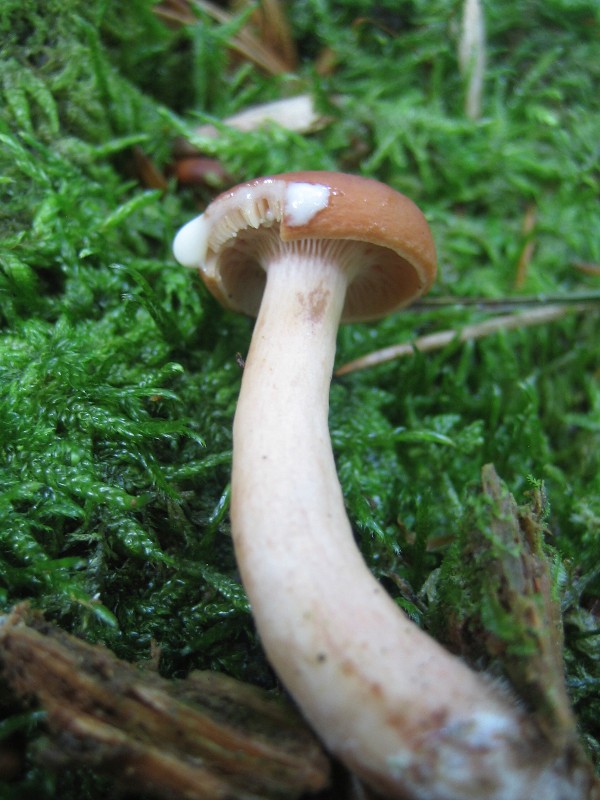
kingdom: Fungi
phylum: Basidiomycota
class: Agaricomycetes
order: Russulales
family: Russulaceae
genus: Lactarius
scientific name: Lactarius rufus
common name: rødbrun mælkehat
